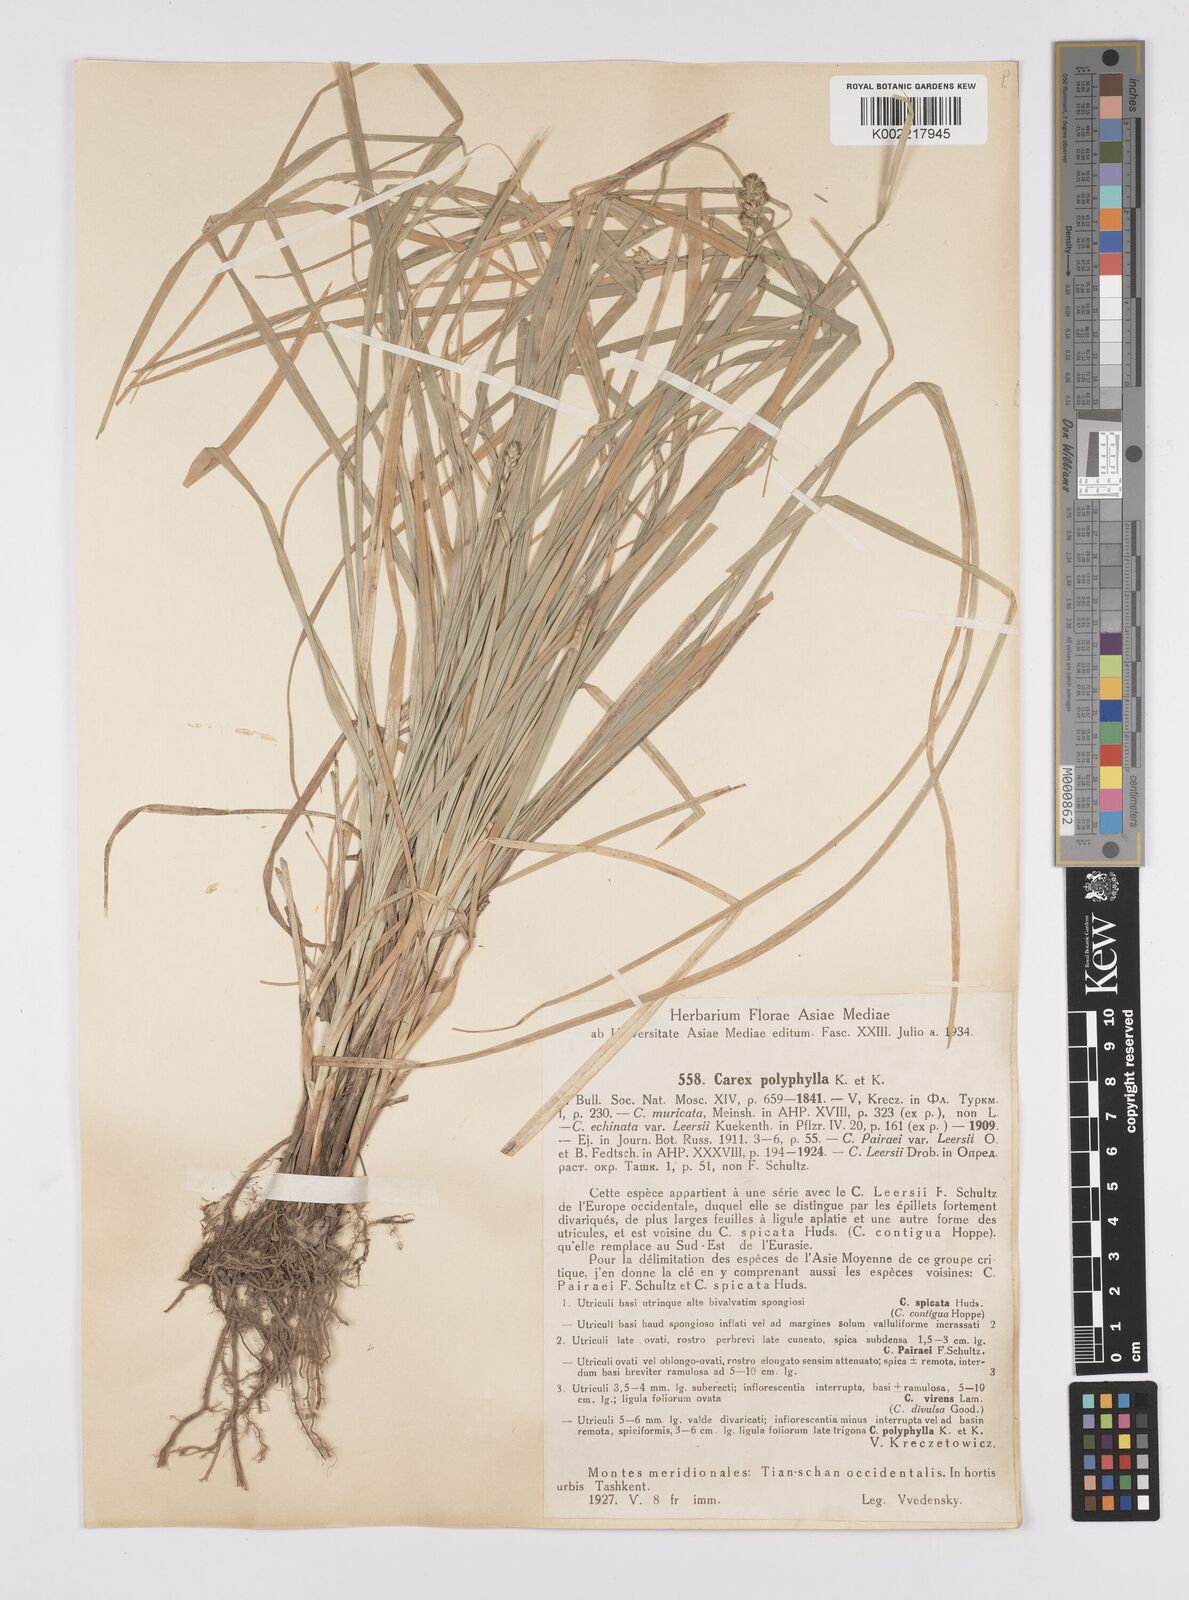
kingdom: Plantae
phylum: Tracheophyta
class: Liliopsida
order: Poales
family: Cyperaceae
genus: Carex
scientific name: Carex vulpina
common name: True fox-sedge
